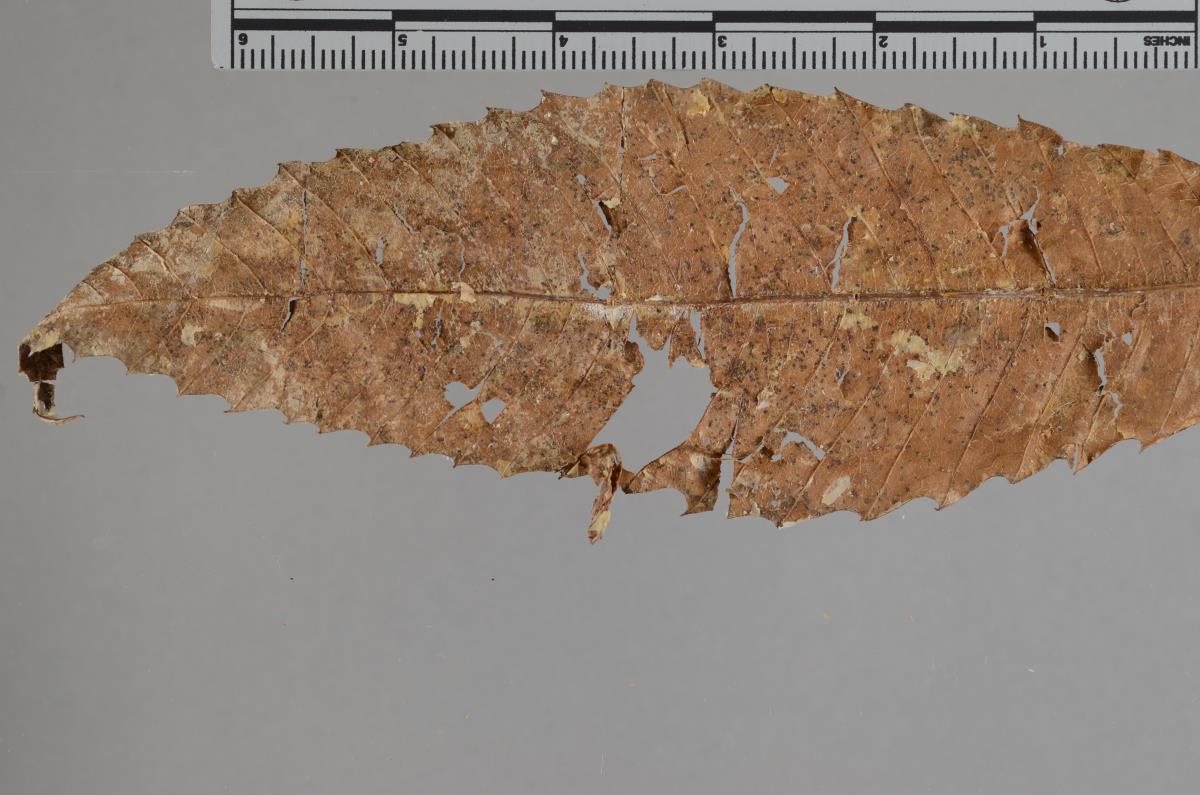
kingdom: Fungi
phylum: Ascomycota
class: Dothideomycetes
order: Mycosphaerellales
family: Mycosphaerellaceae
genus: Stromatoseptoria
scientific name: Stromatoseptoria castaneicola
